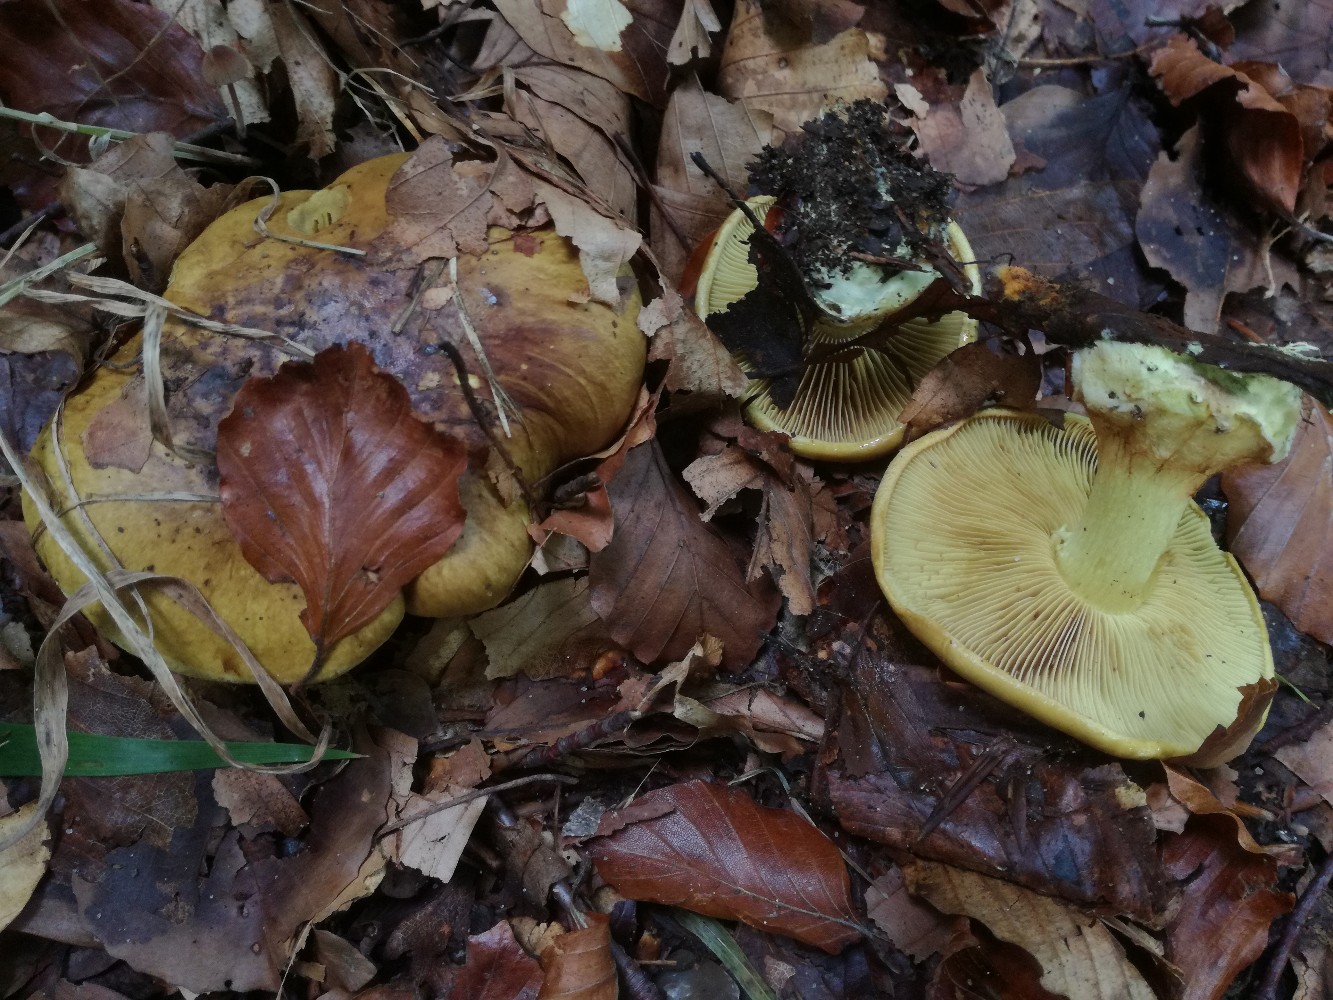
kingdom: Fungi
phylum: Basidiomycota
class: Agaricomycetes
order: Agaricales
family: Cortinariaceae
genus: Calonarius
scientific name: Calonarius citrinus
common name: citrongul slørhat
